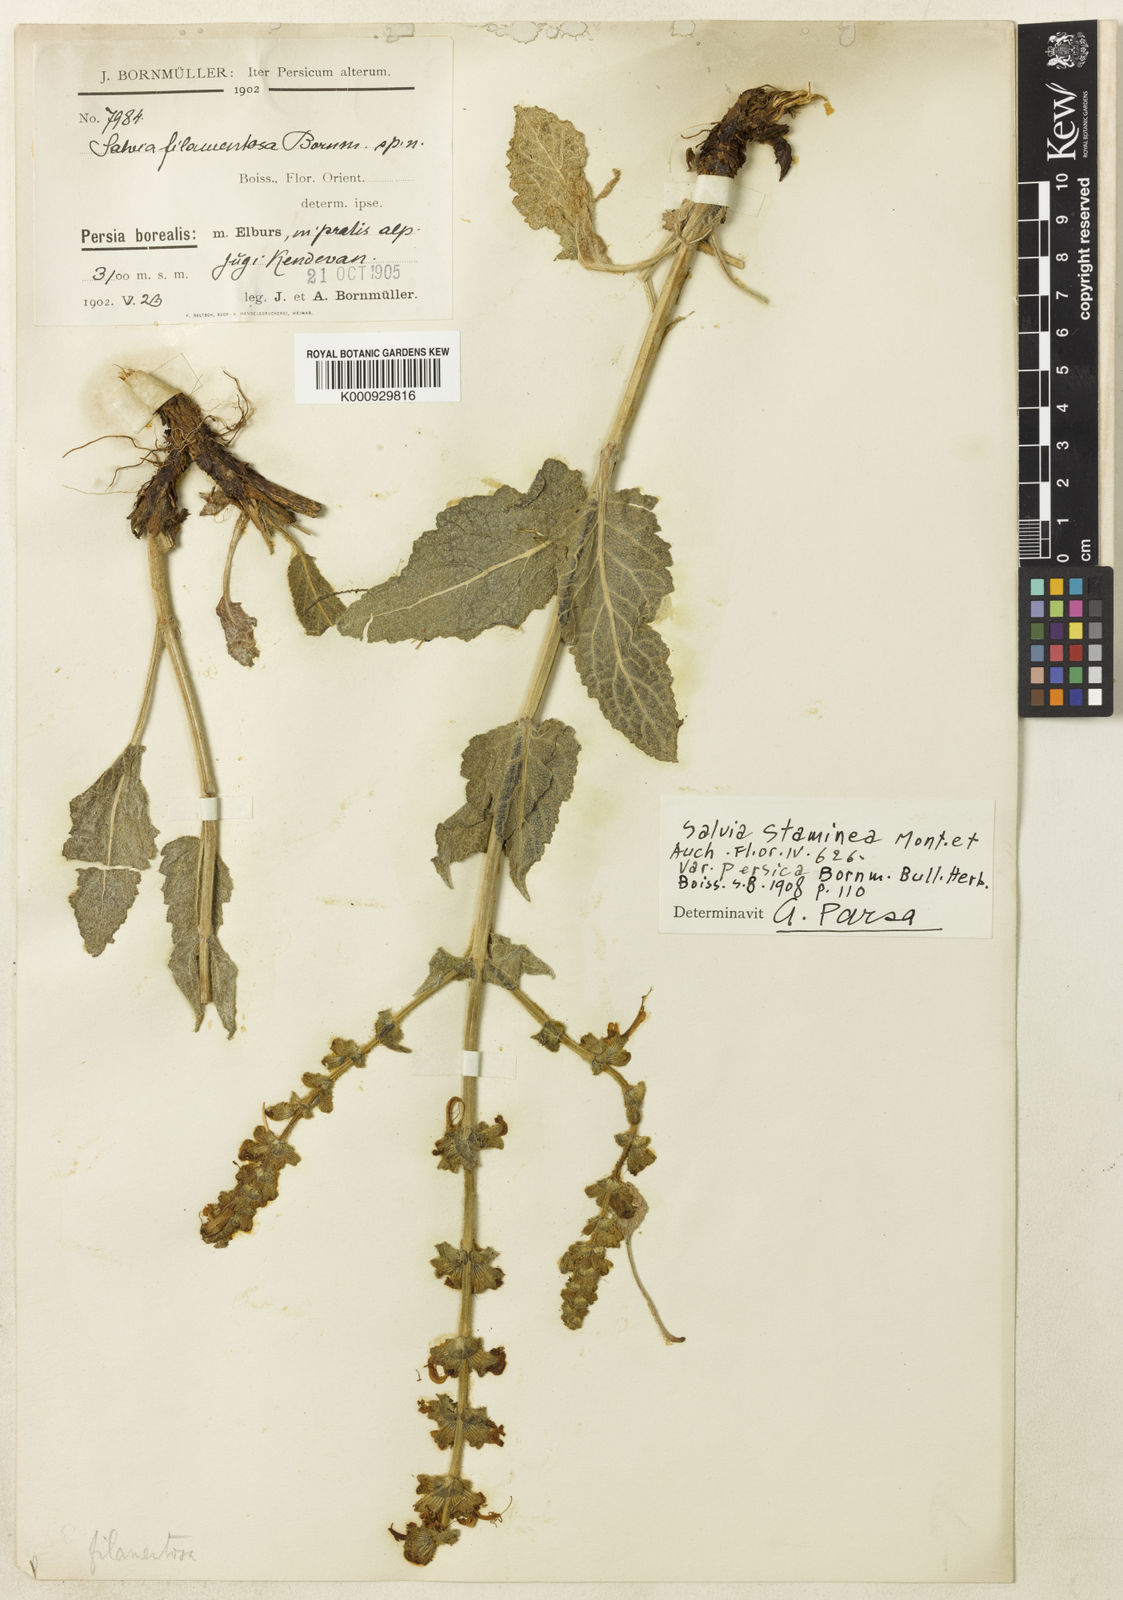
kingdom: Plantae
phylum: Tracheophyta
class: Magnoliopsida
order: Lamiales
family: Lamiaceae
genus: Salvia
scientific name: Salvia staminea
